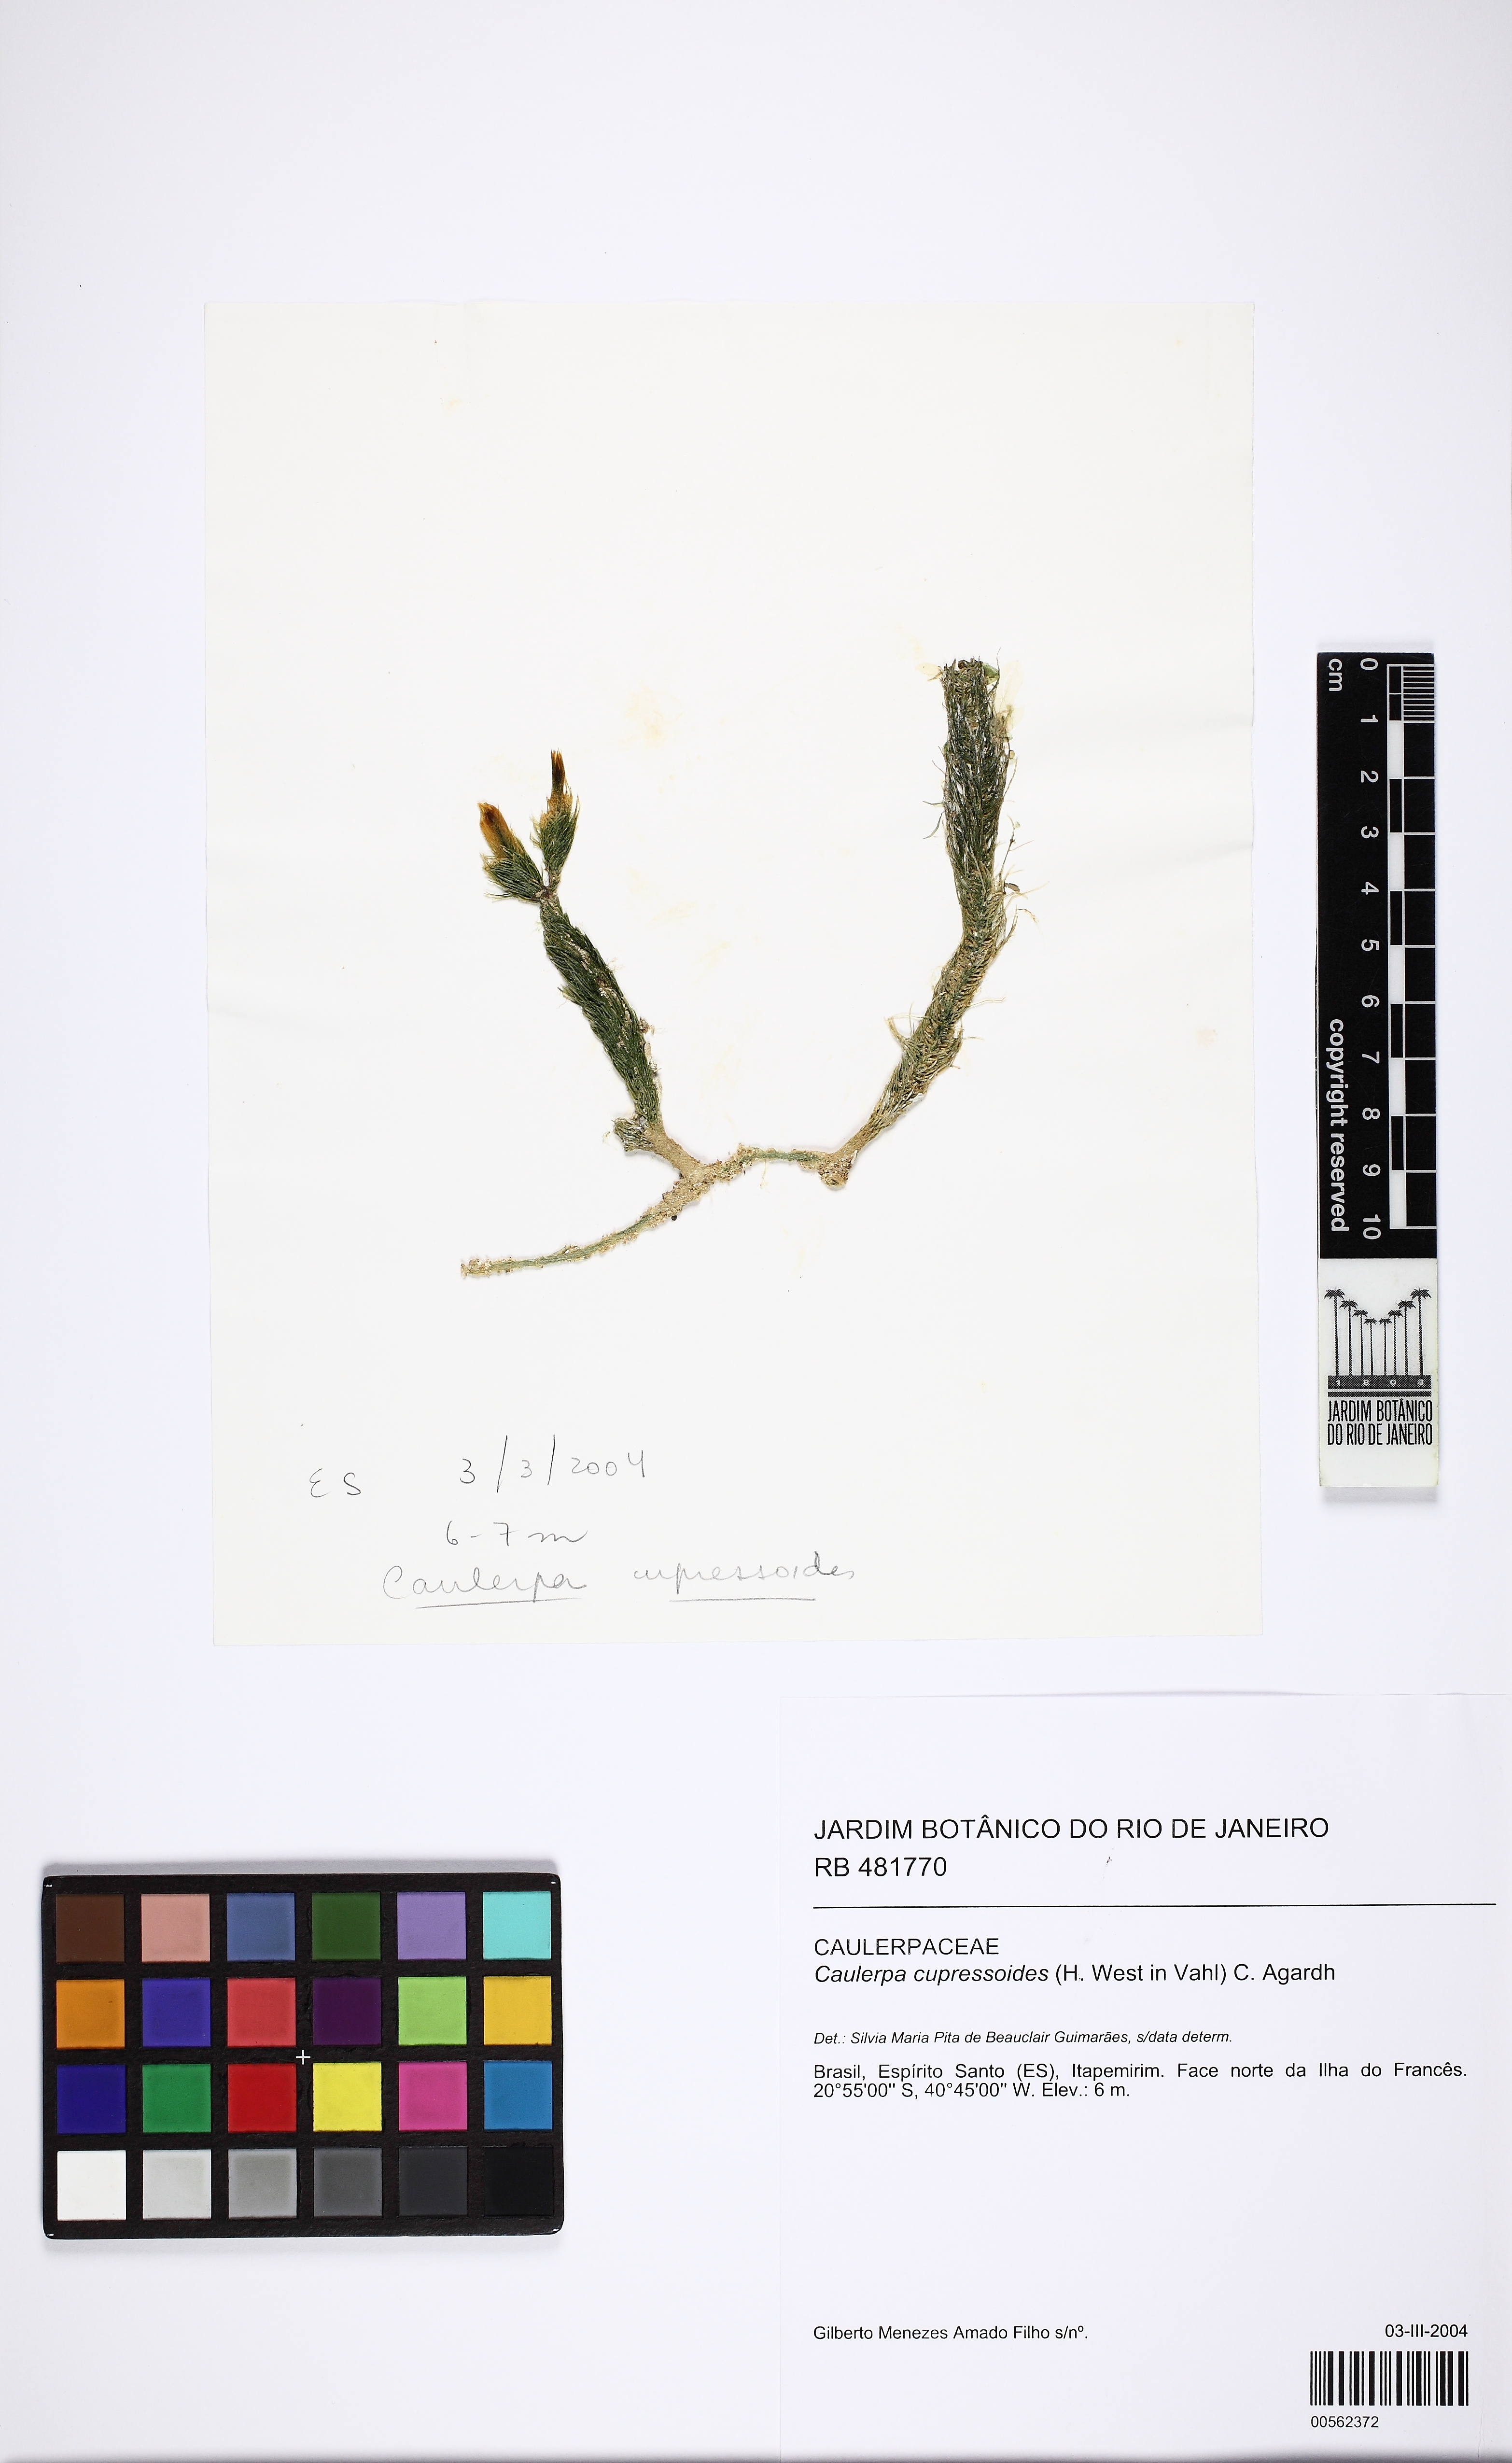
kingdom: Plantae
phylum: Chlorophyta
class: Ulvophyceae
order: Bryopsidales
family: Caulerpaceae
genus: Caulerpa
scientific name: Caulerpa cupressoides
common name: Cactus tree algae
